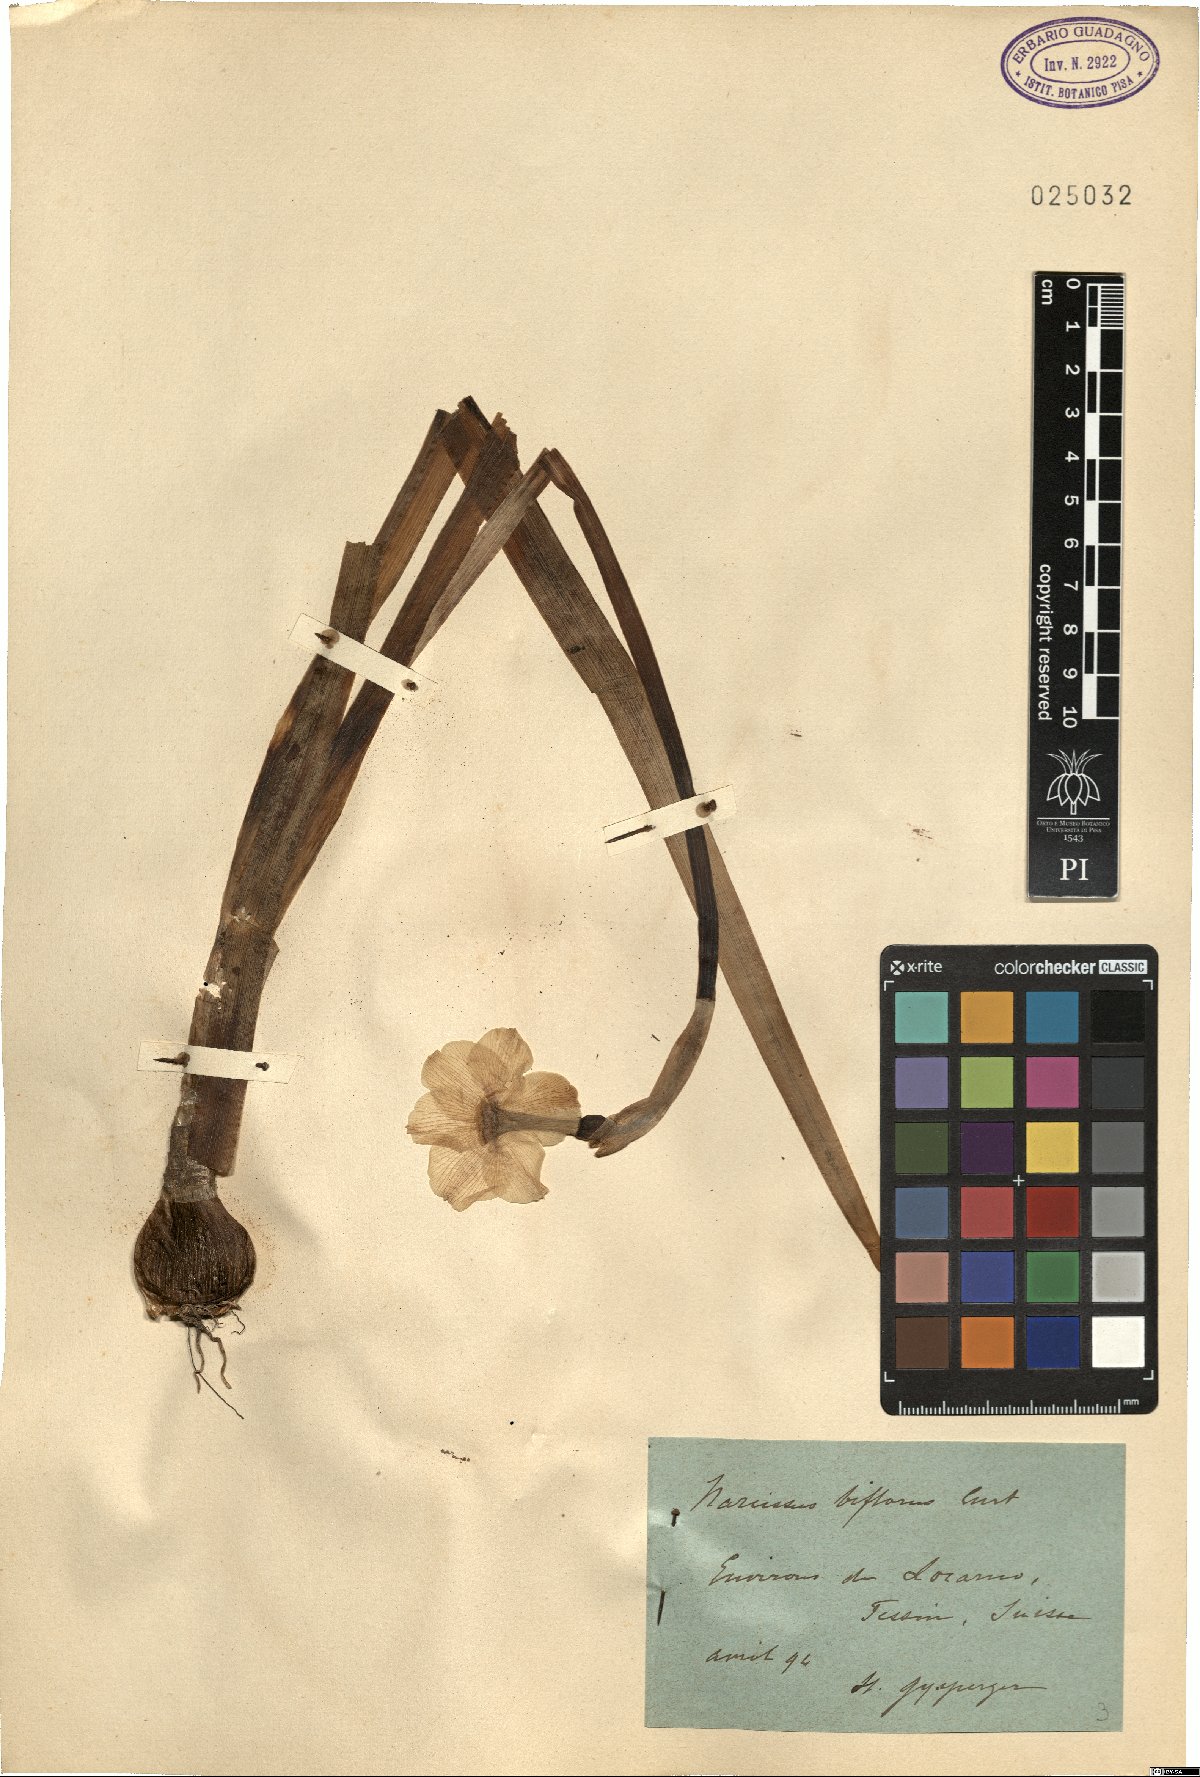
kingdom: Plantae
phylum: Tracheophyta
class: Liliopsida
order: Asparagales
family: Amaryllidaceae
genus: Narcissus
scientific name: Narcissus medioluteus
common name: Primrose-peerless
